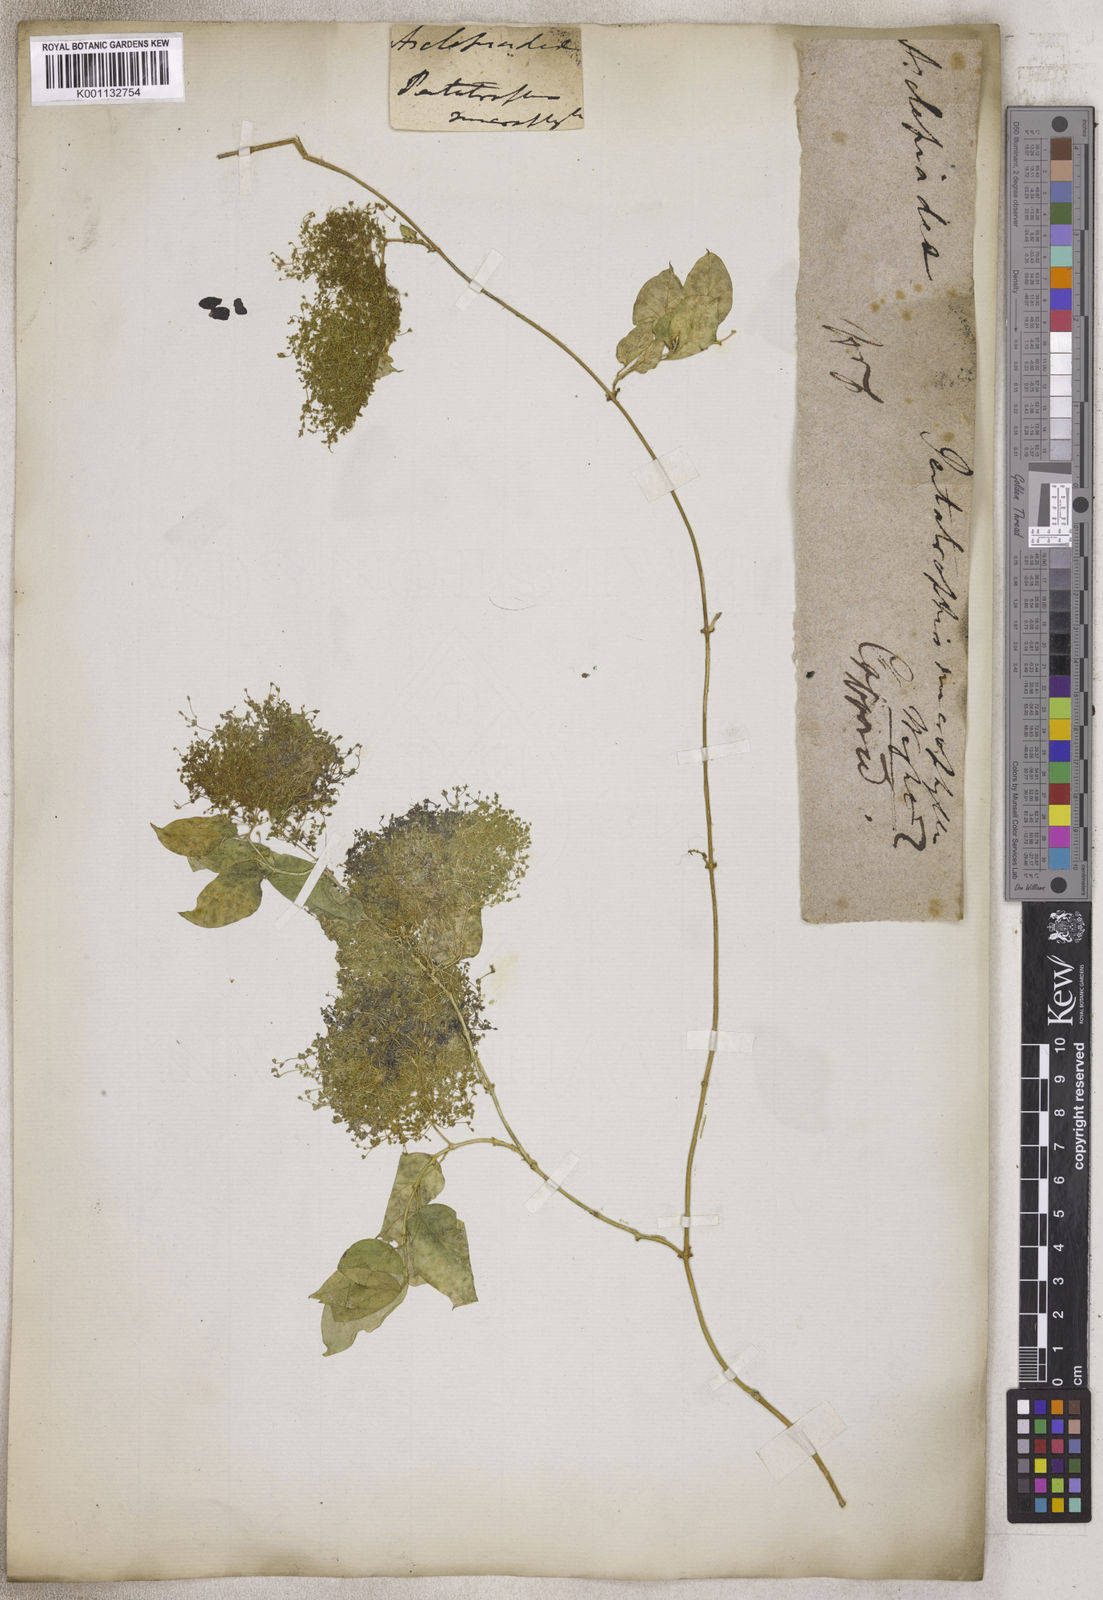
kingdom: Plantae
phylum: Tracheophyta
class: Magnoliopsida
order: Gentianales
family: Apocynaceae
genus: Pentatropis
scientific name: Pentatropis capensis
